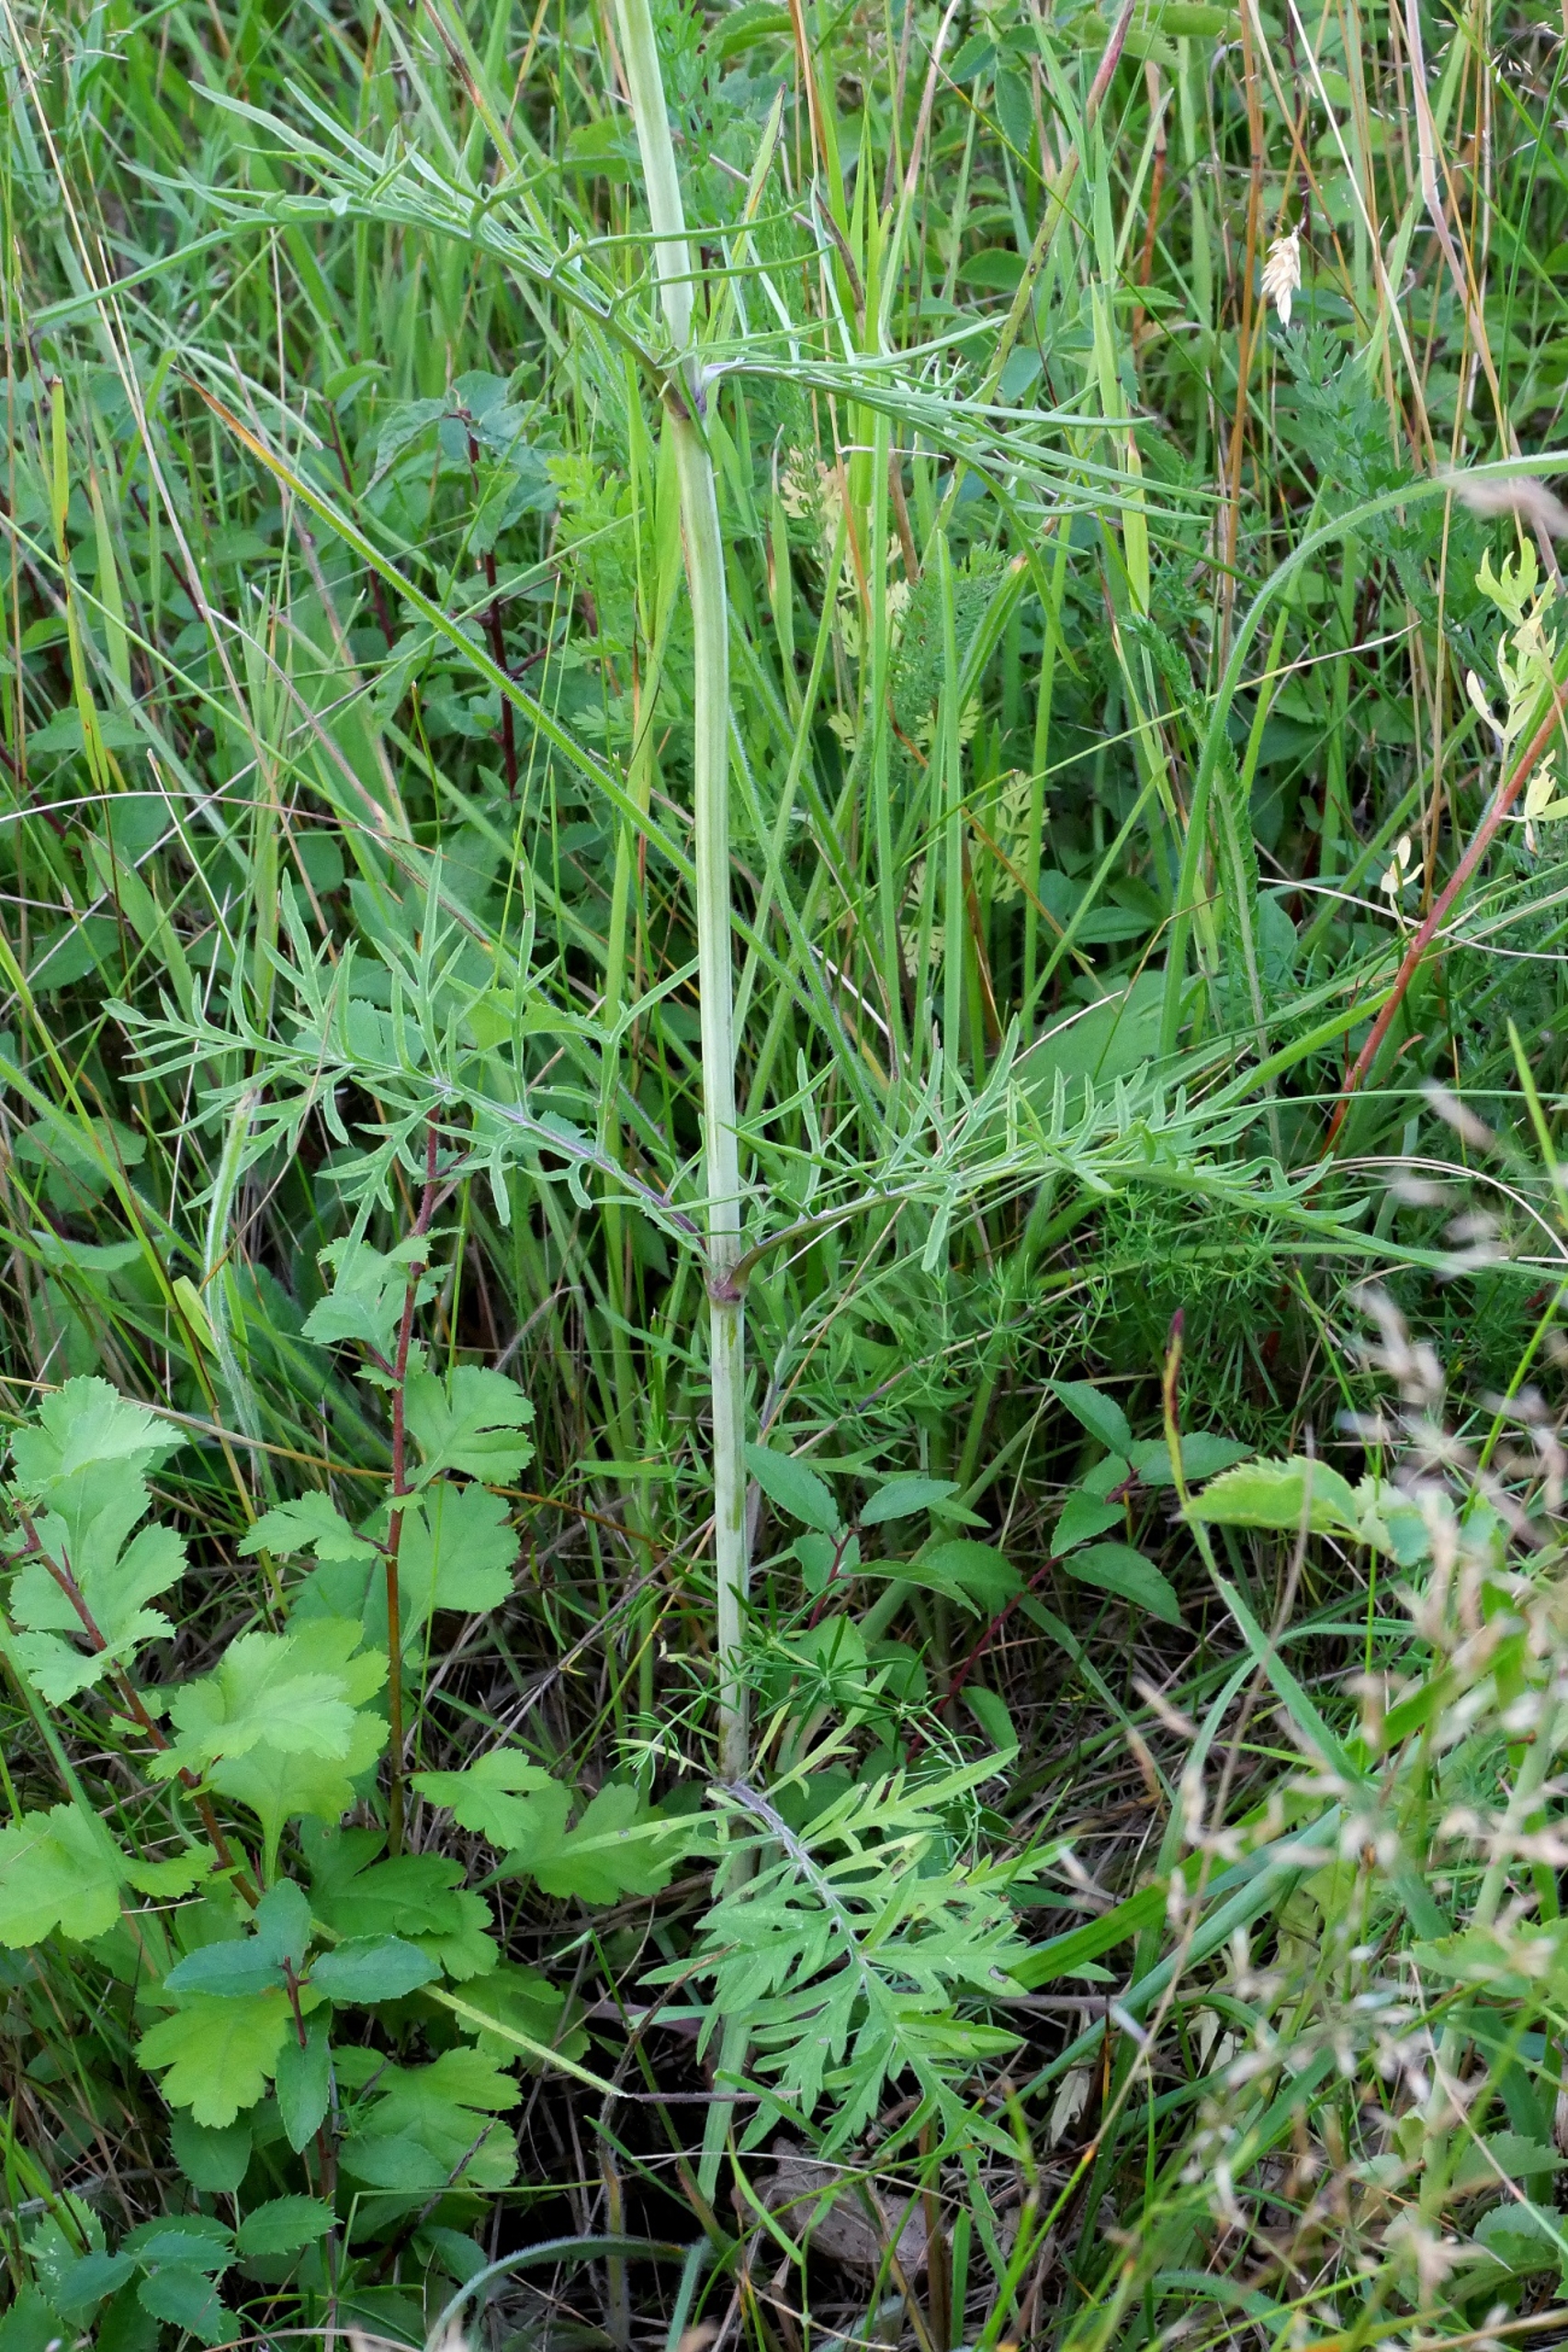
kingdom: Plantae
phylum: Tracheophyta
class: Magnoliopsida
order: Dipsacales
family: Caprifoliaceae
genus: Scabiosa
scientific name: Scabiosa columbaria
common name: Due-skabiose
